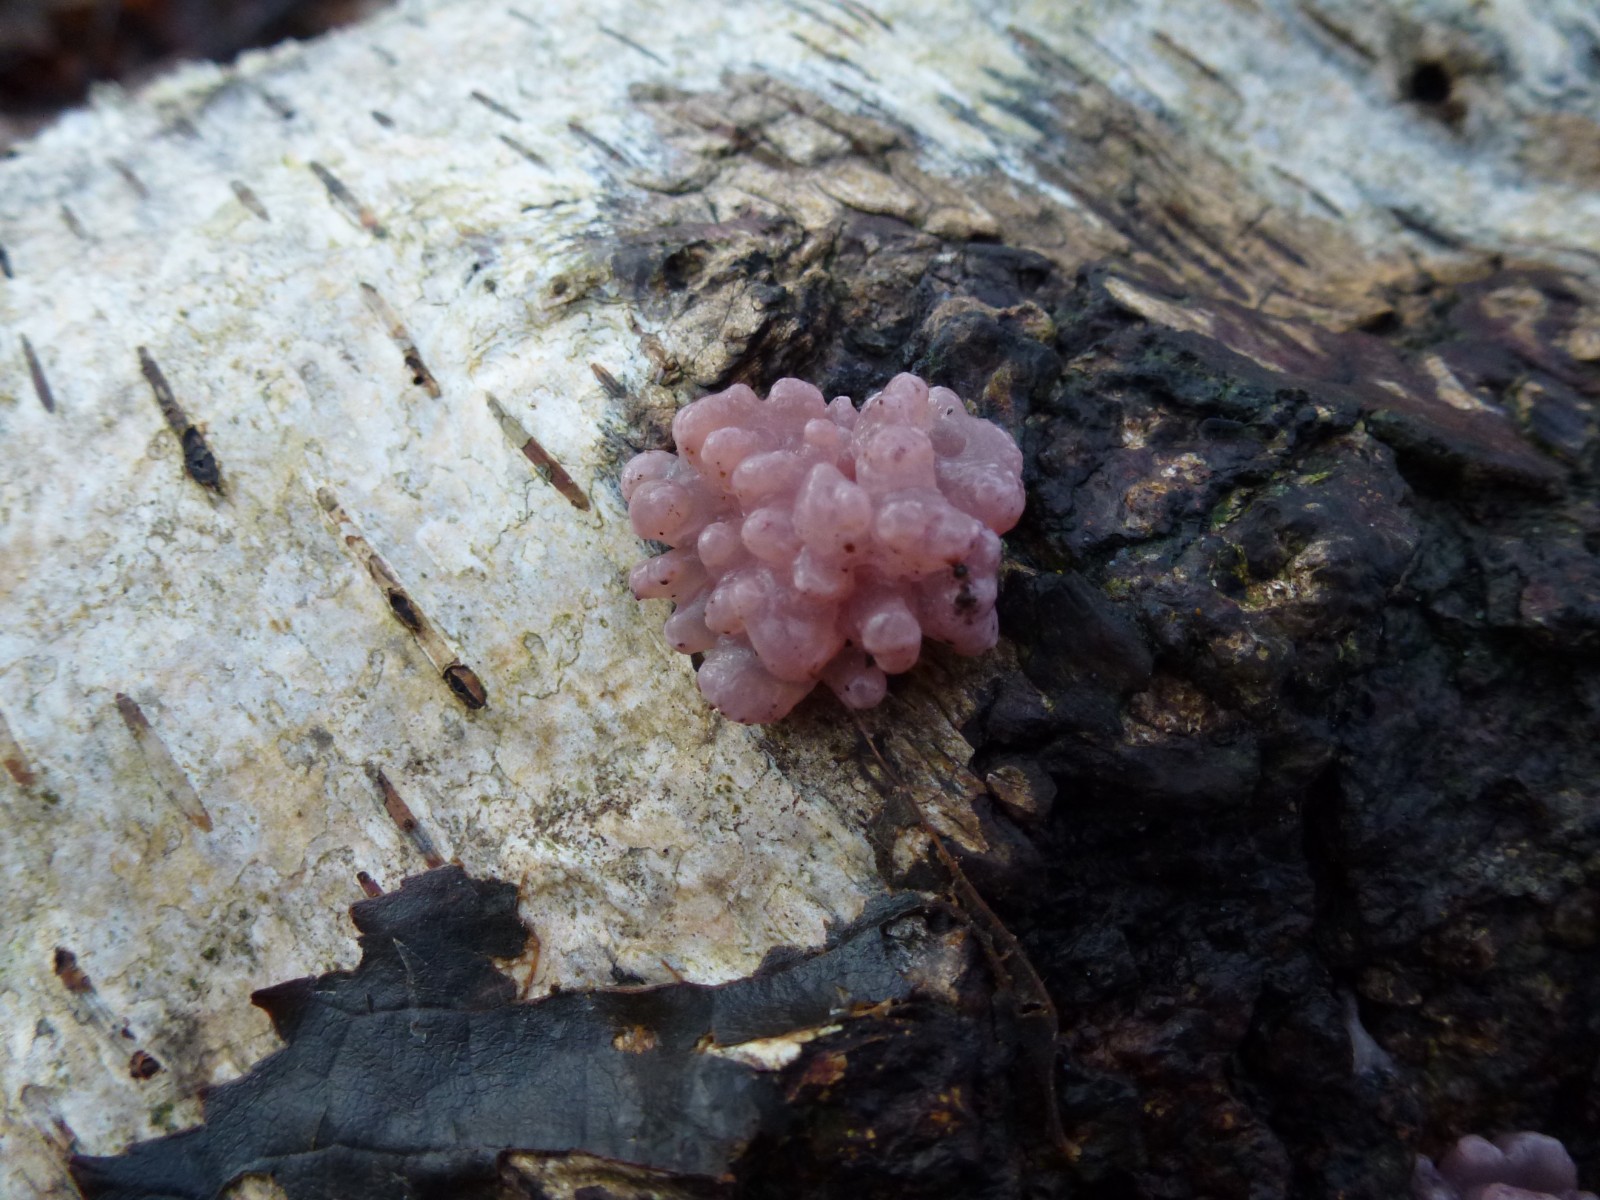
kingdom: Fungi
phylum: Ascomycota
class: Leotiomycetes
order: Helotiales
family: Gelatinodiscaceae
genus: Ascocoryne
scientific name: Ascocoryne sarcoides
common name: rødlilla sejskive
